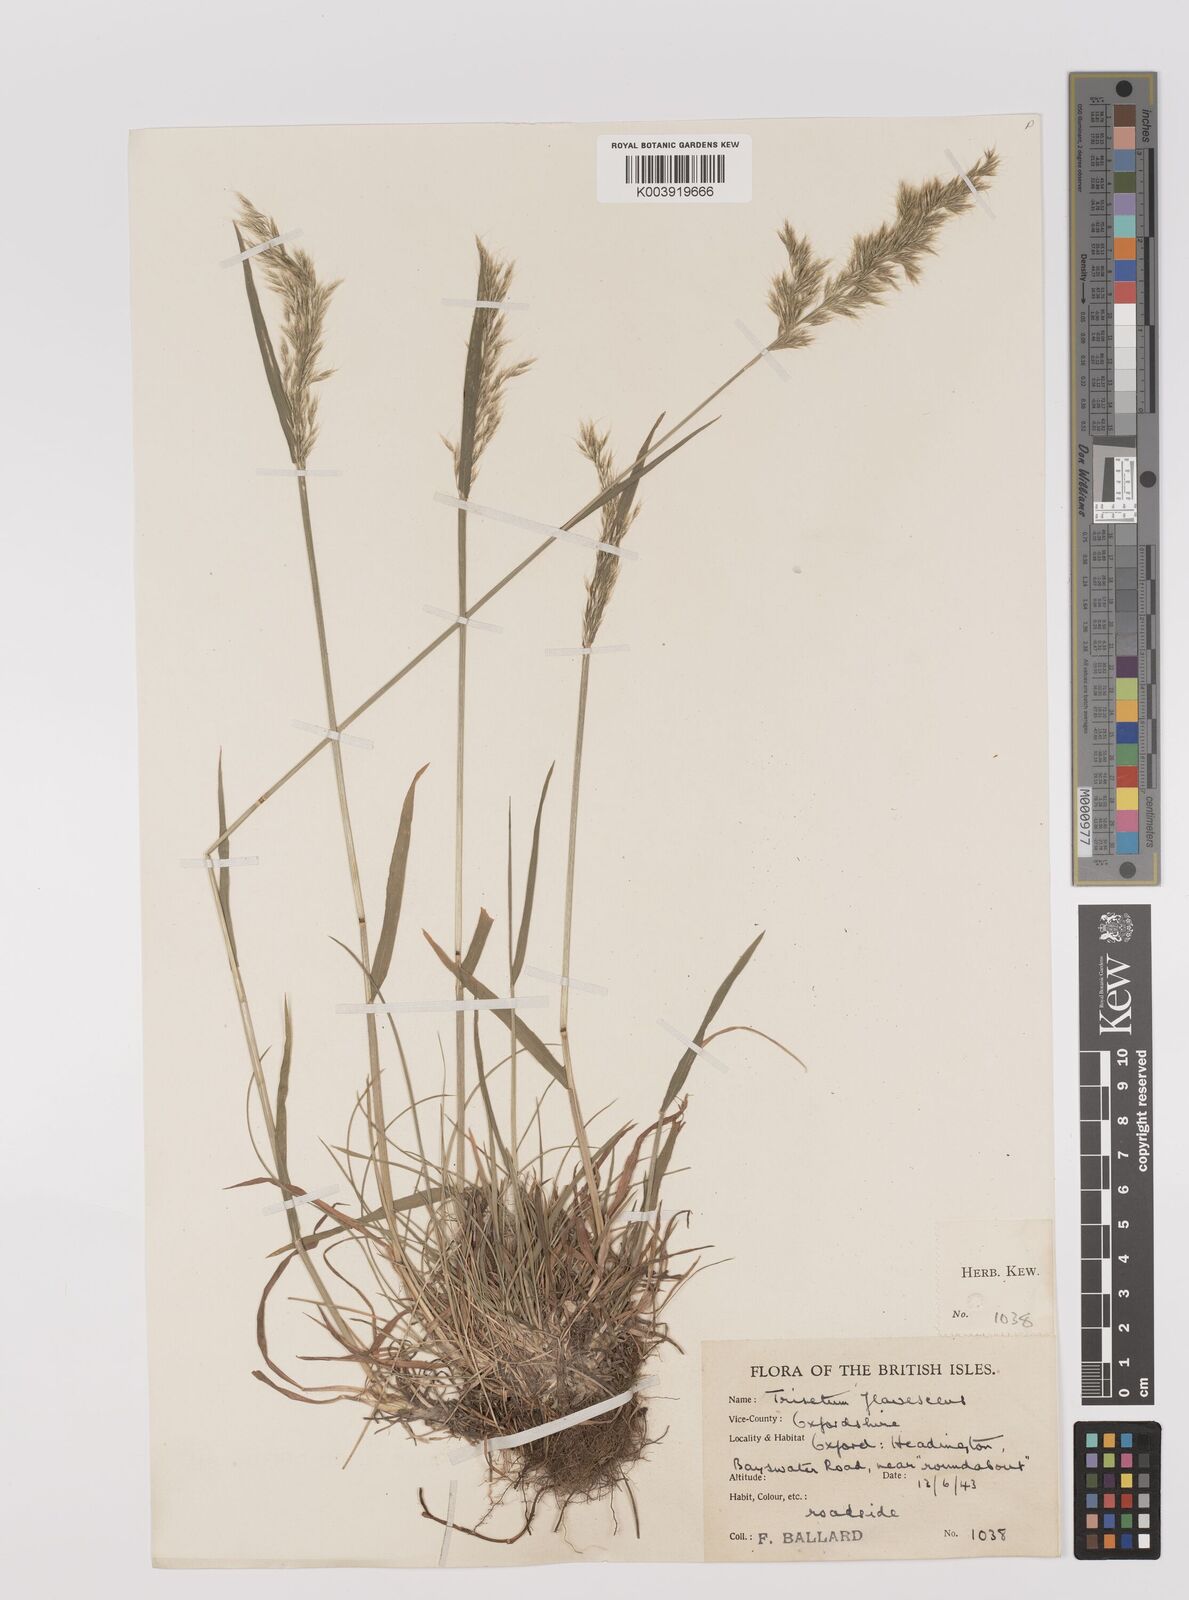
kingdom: Plantae
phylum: Tracheophyta
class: Liliopsida
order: Poales
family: Poaceae
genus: Trisetum
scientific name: Trisetum flavescens
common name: Yellow oat-grass
